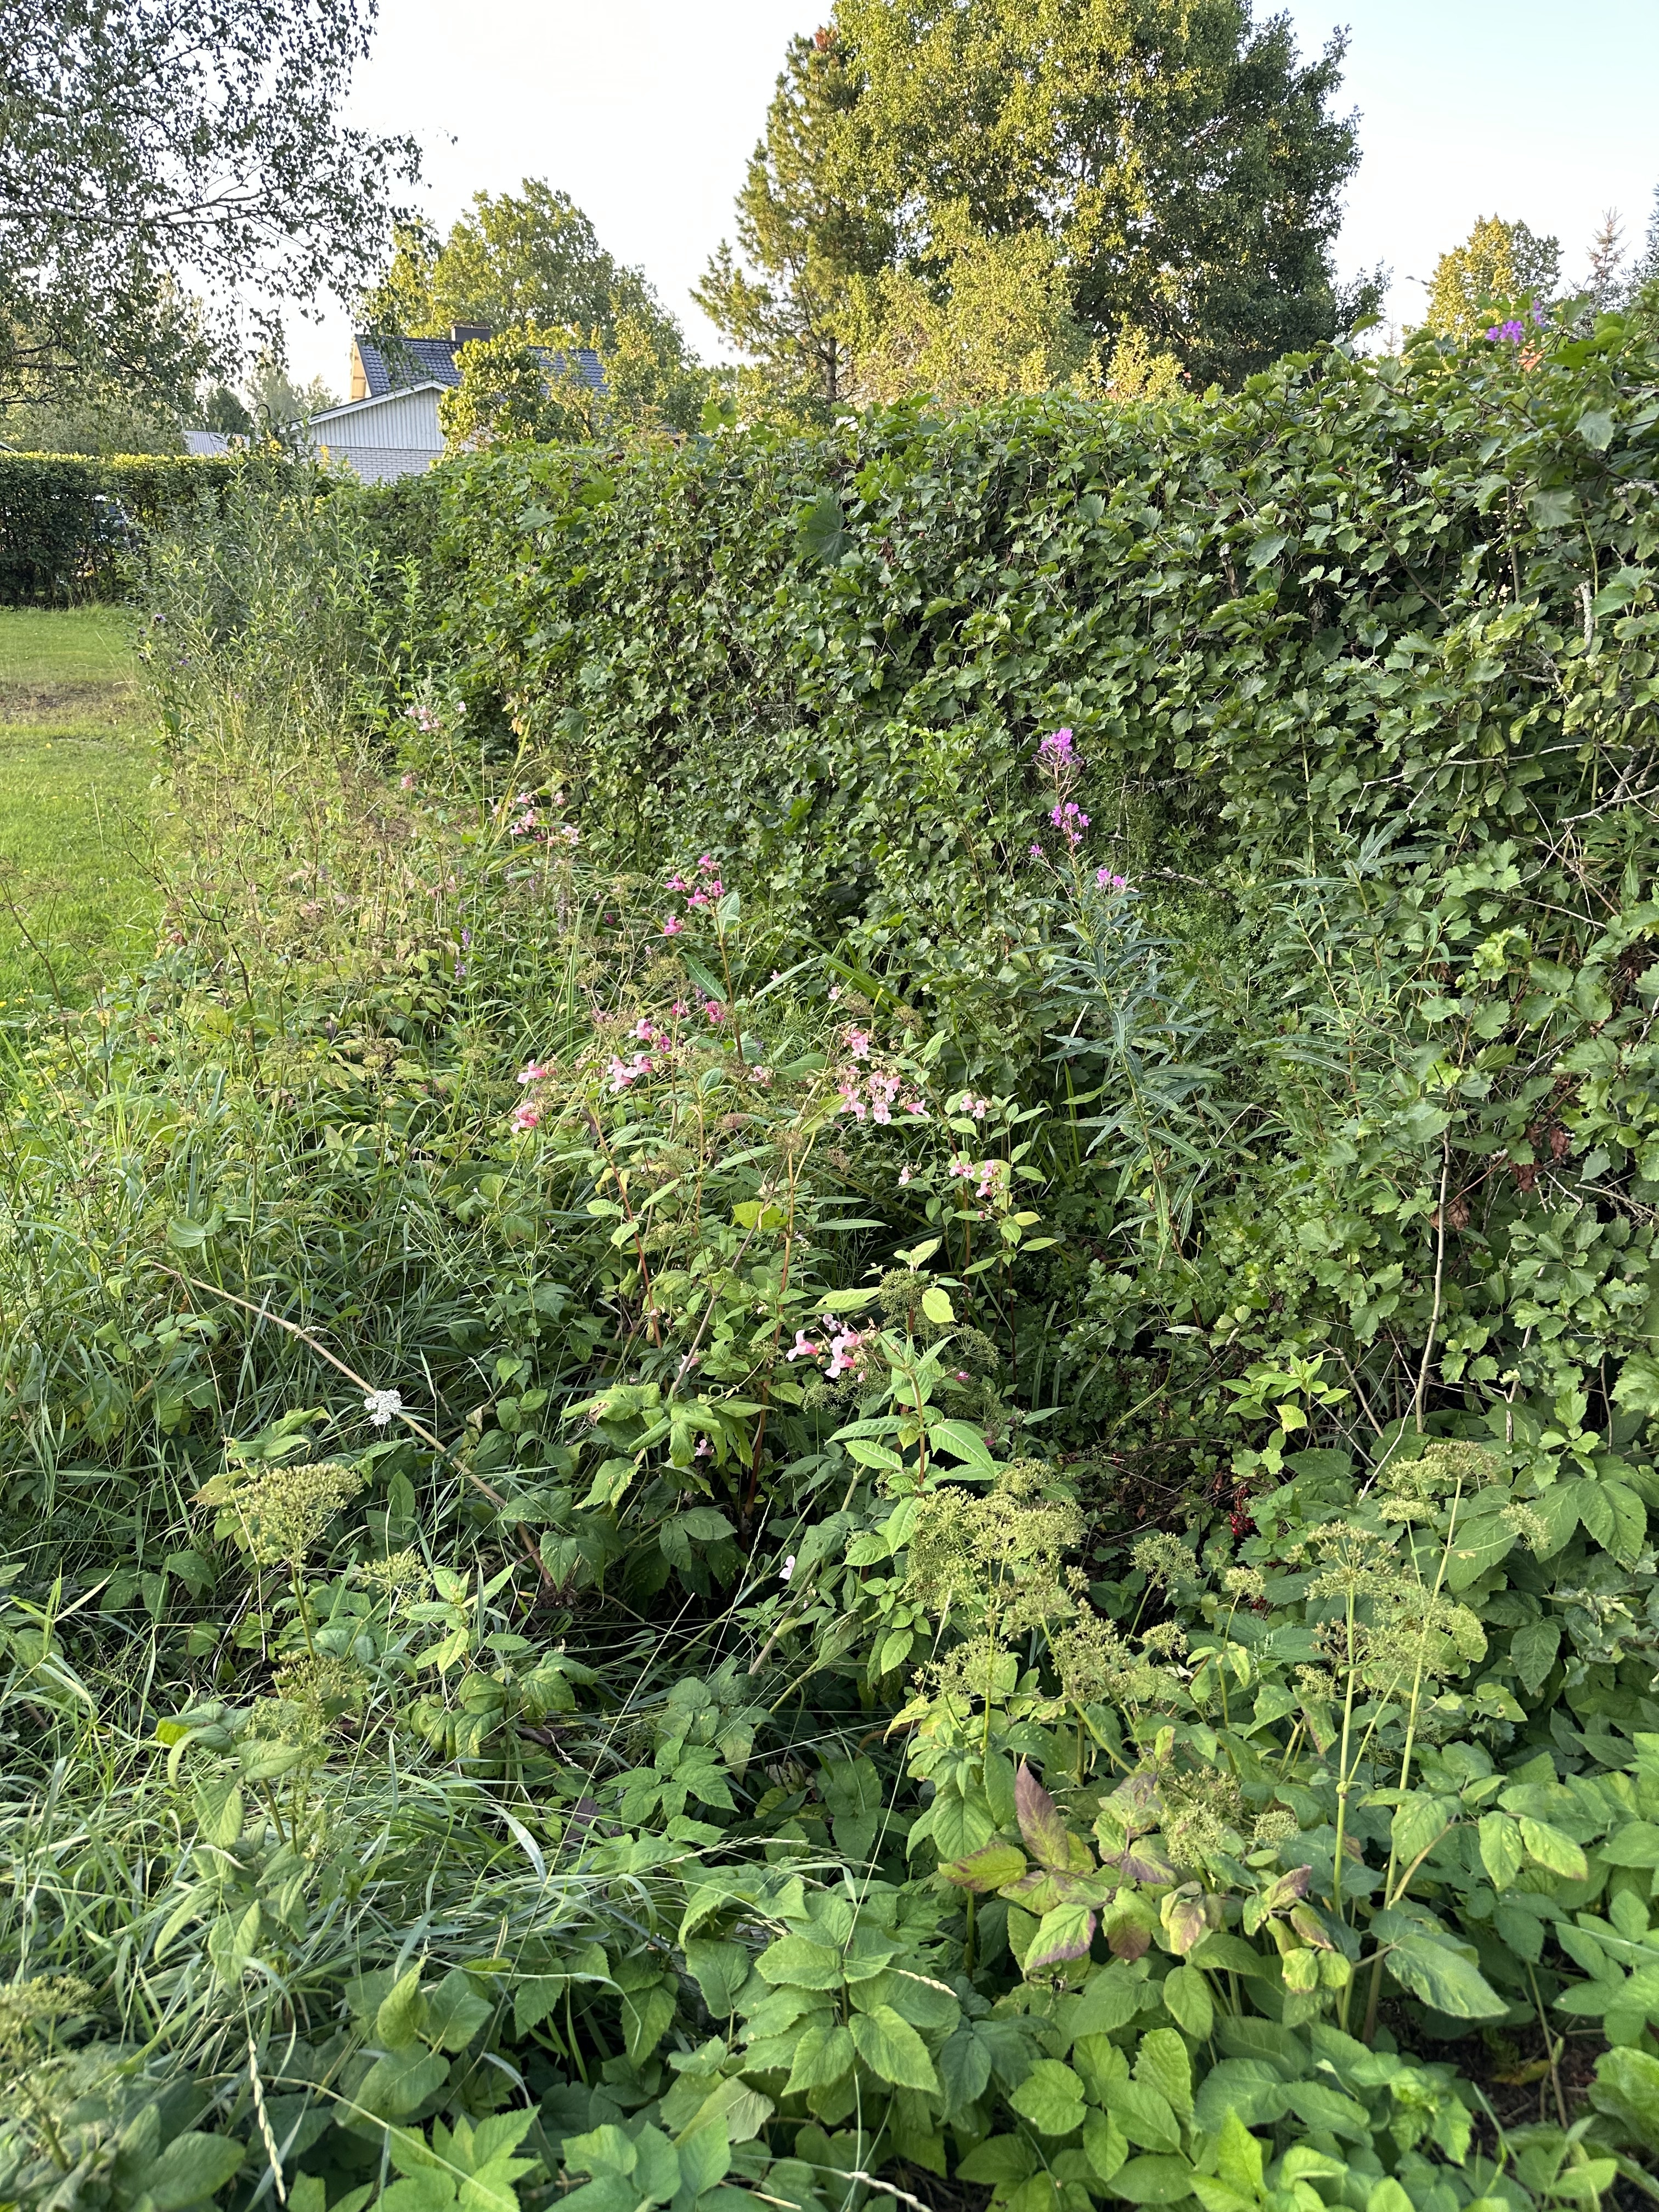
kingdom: Plantae
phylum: Tracheophyta
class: Magnoliopsida
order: Ericales
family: Balsaminaceae
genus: Impatiens
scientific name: Impatiens glandulifera
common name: Himalayan balsam
